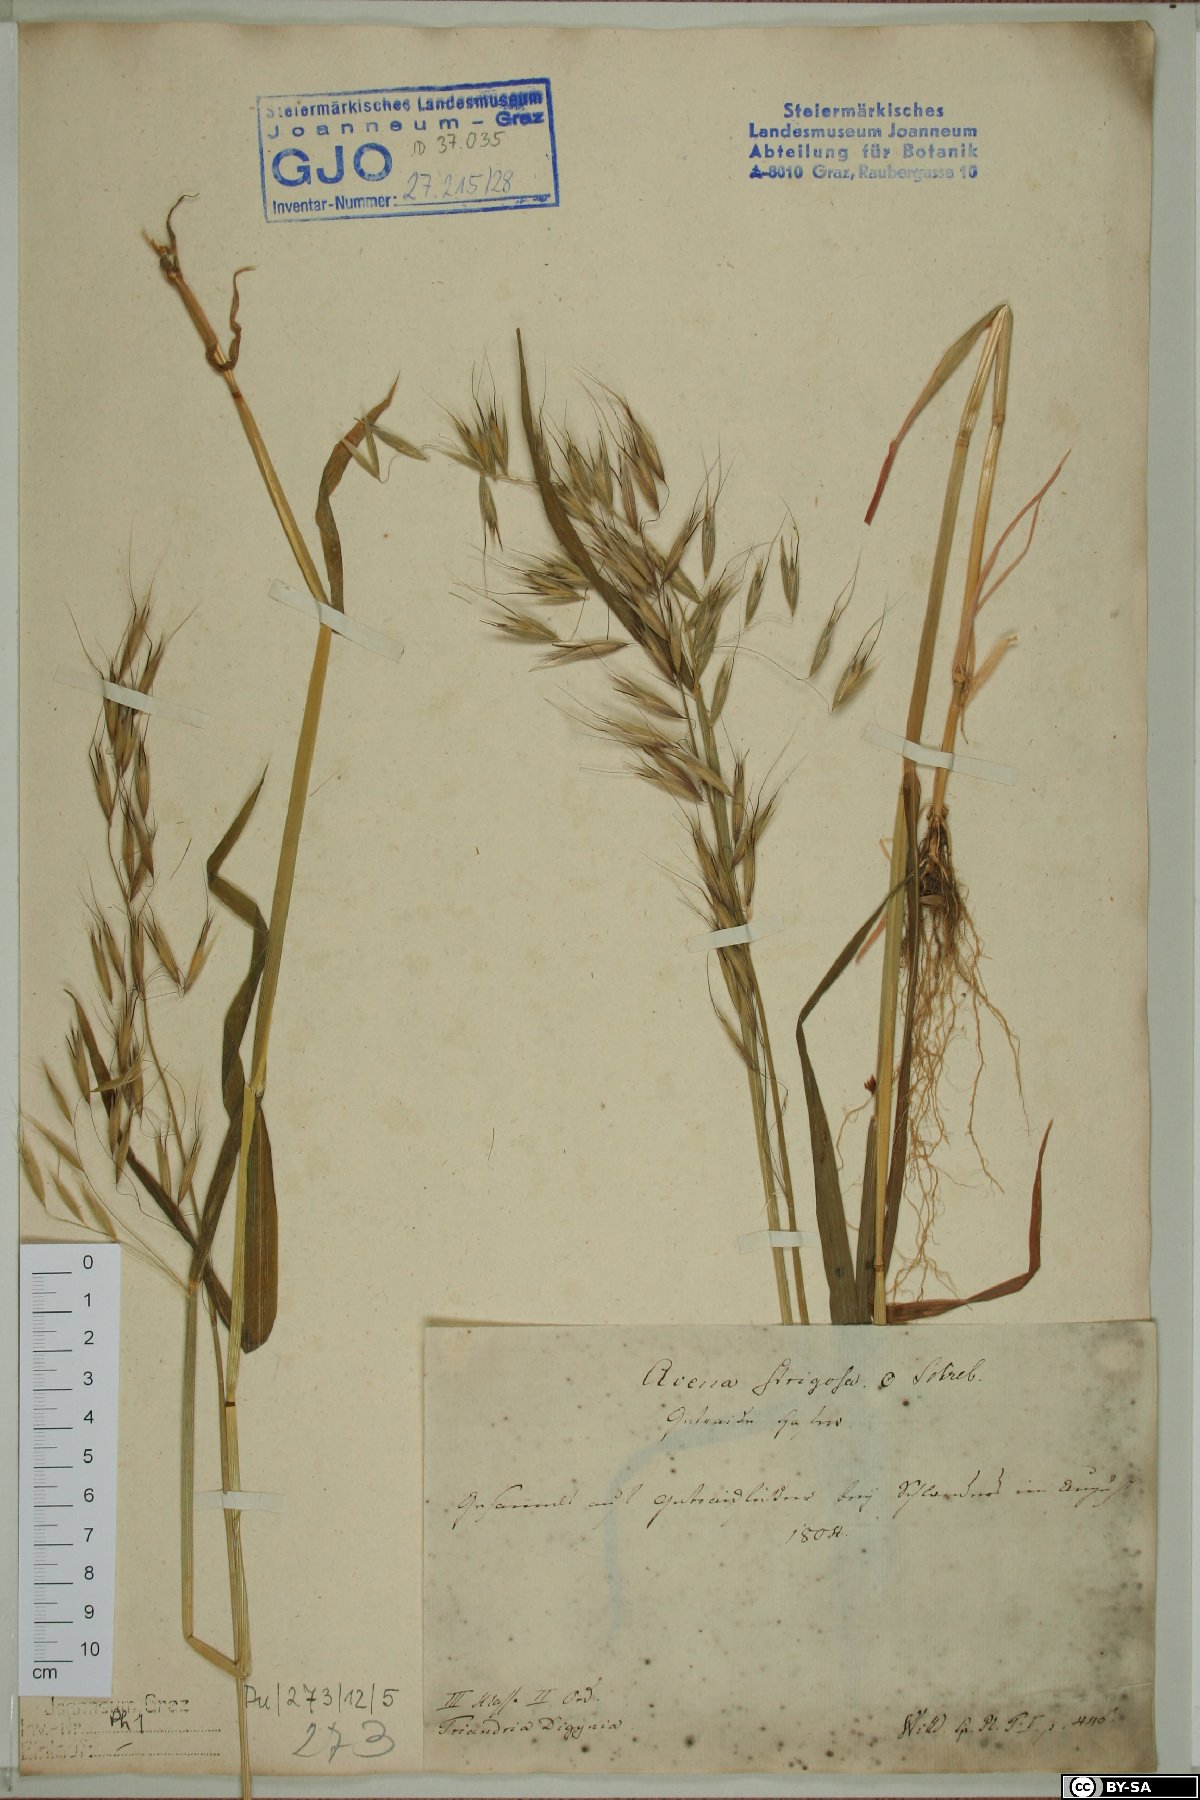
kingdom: Plantae
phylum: Tracheophyta
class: Liliopsida
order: Poales
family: Poaceae
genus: Avena
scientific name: Avena strigosa
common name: Bristle oat
